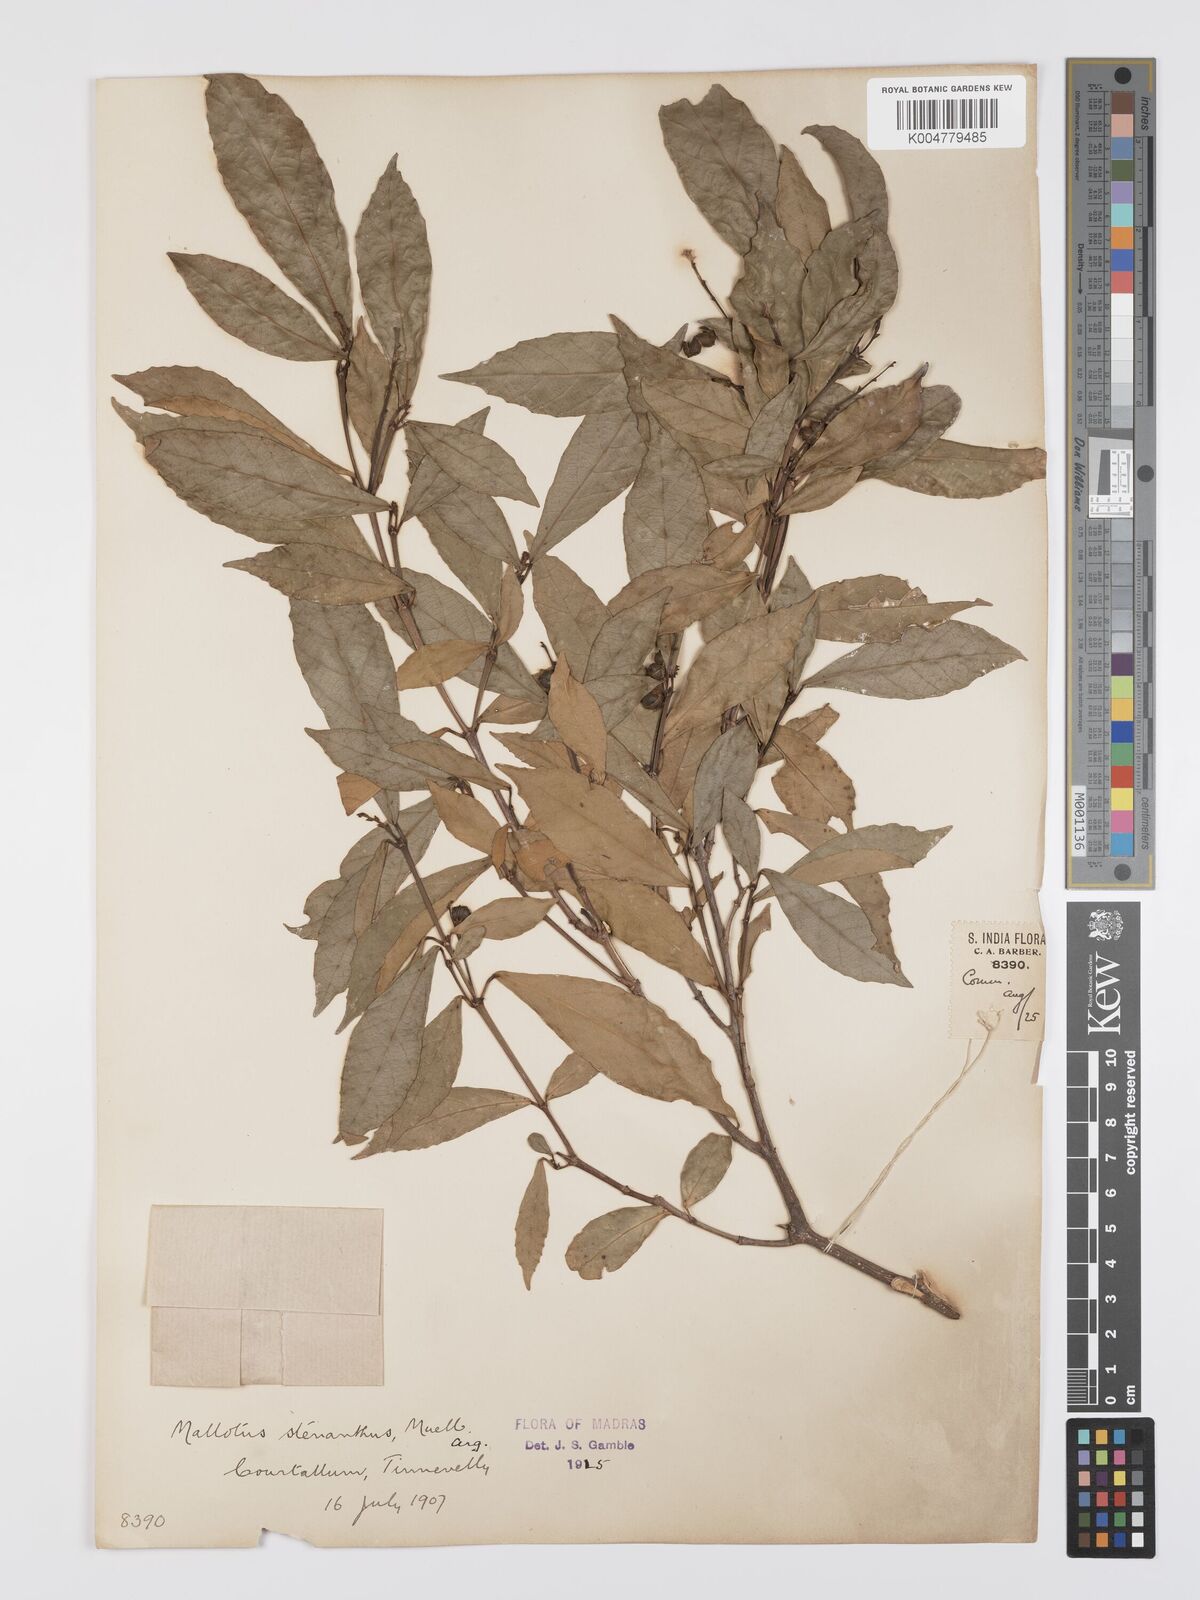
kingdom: Plantae
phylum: Tracheophyta
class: Magnoliopsida
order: Malpighiales
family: Euphorbiaceae
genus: Mallotus
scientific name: Mallotus resinosus
